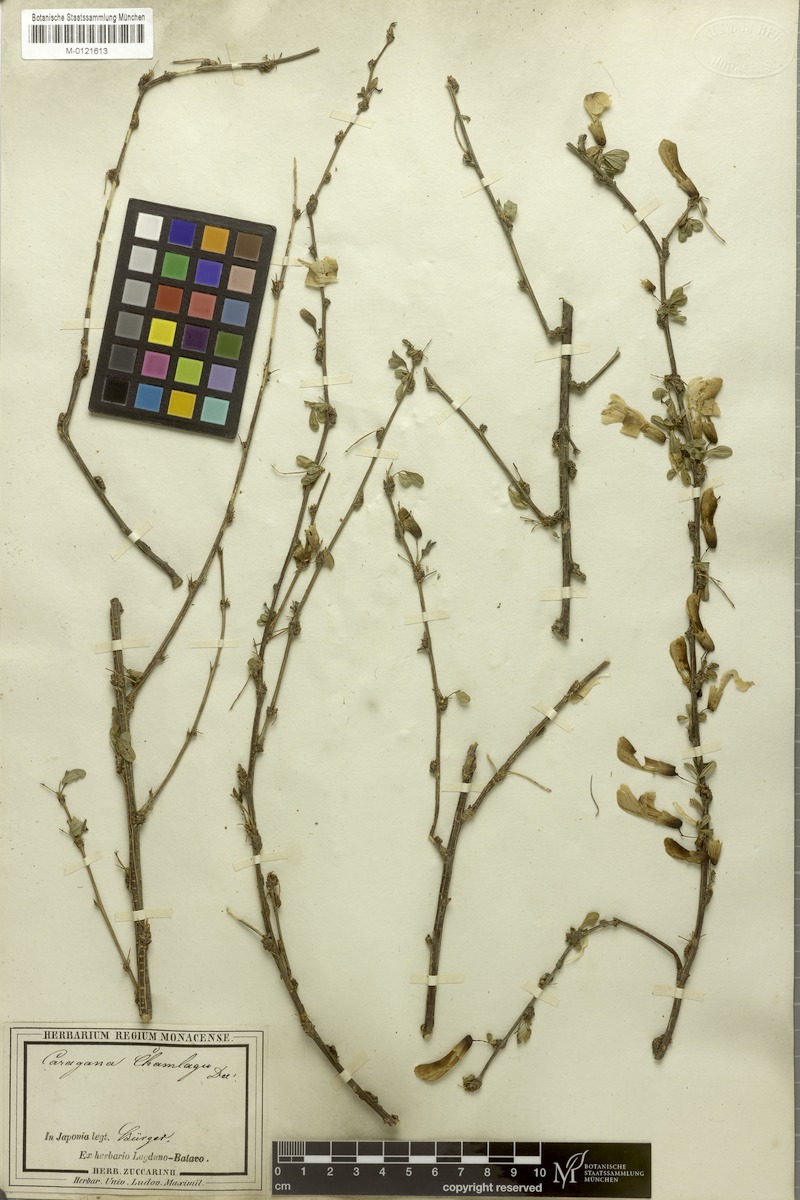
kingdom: Plantae
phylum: Tracheophyta
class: Magnoliopsida
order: Fabales
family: Fabaceae
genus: Caragana
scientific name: Caragana sinica
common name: Chinese peatree
